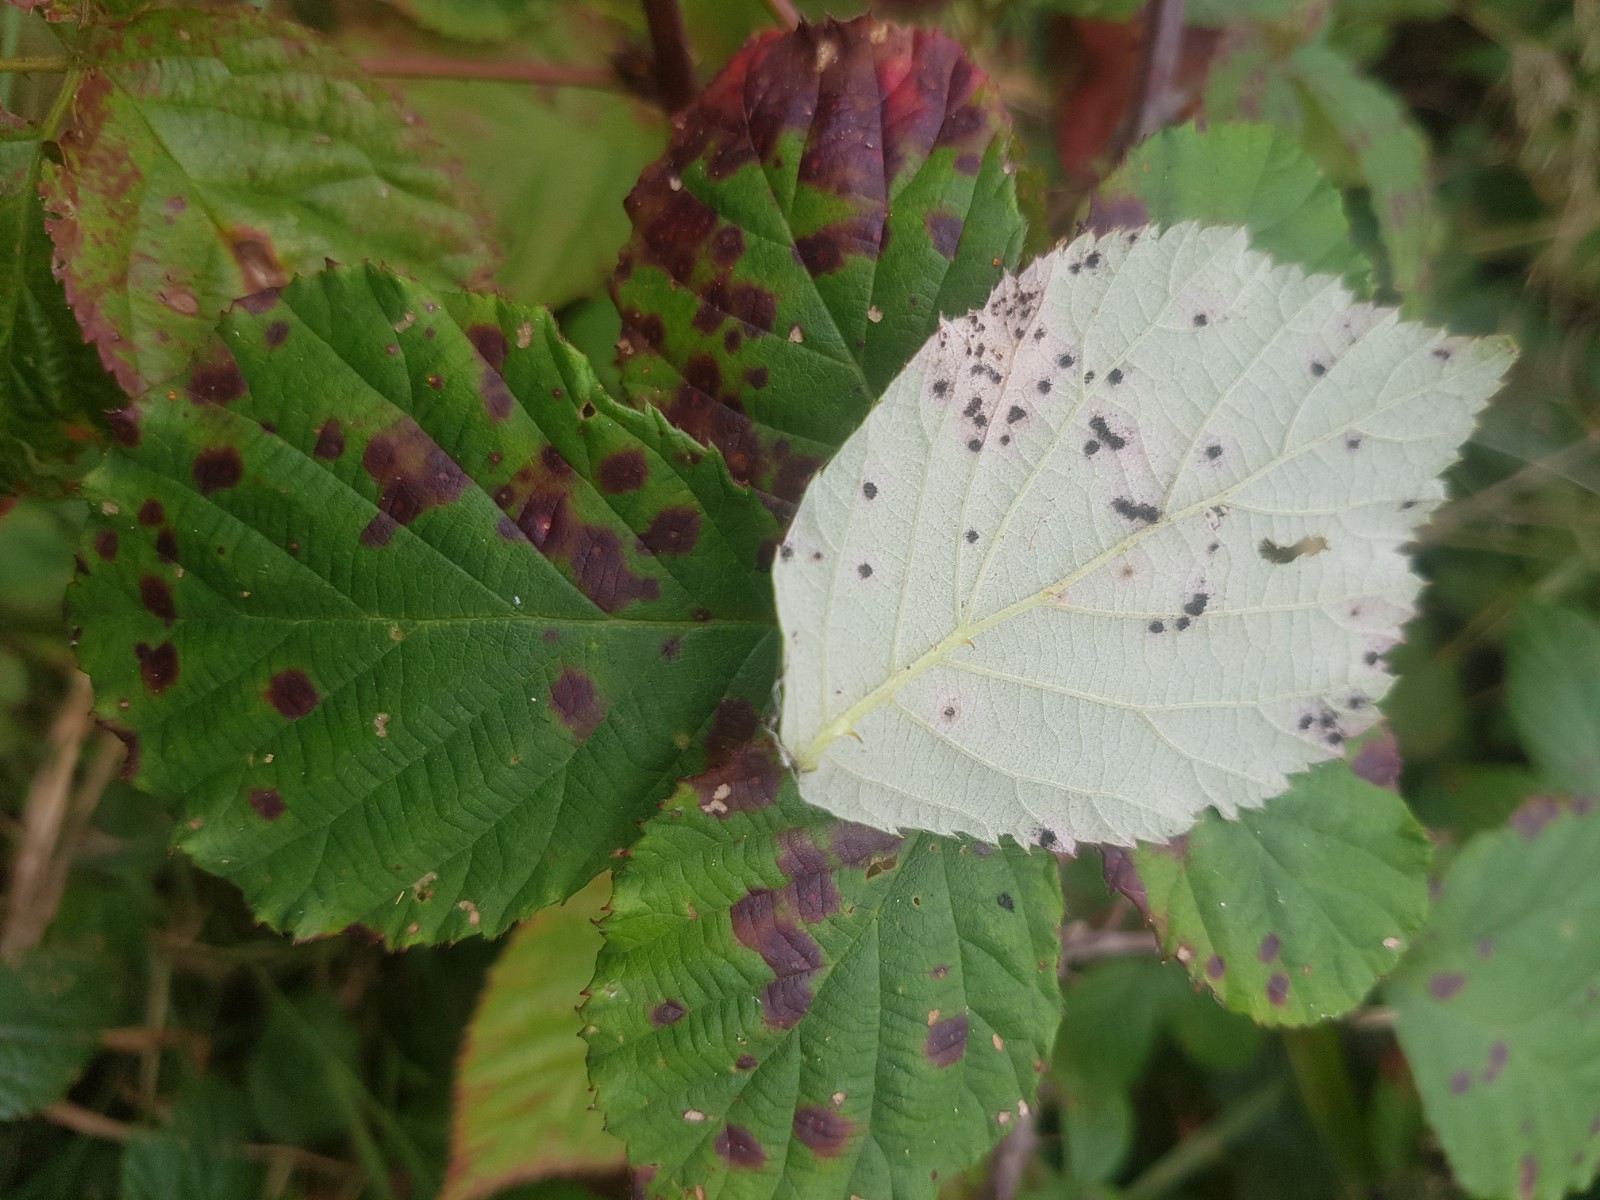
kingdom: Fungi
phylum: Basidiomycota
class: Pucciniomycetes
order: Pucciniales
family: Phragmidiaceae
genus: Phragmidium
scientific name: Phragmidium violaceum
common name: violet flercellerust
